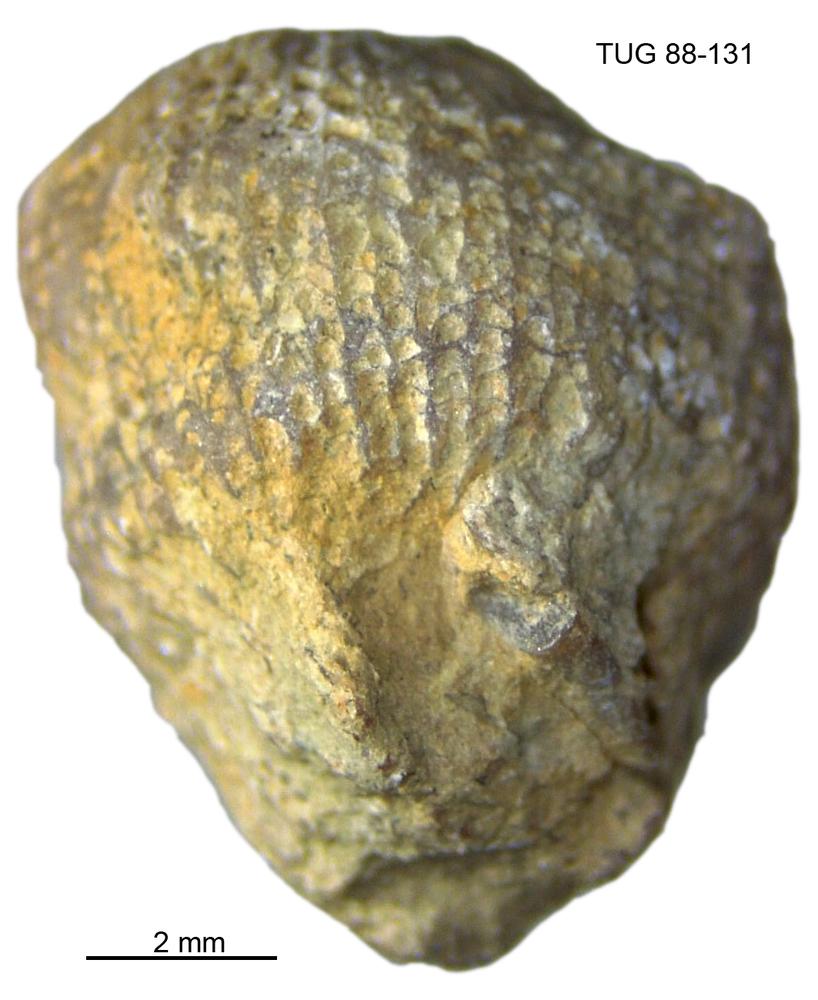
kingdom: Animalia
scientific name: Animalia
